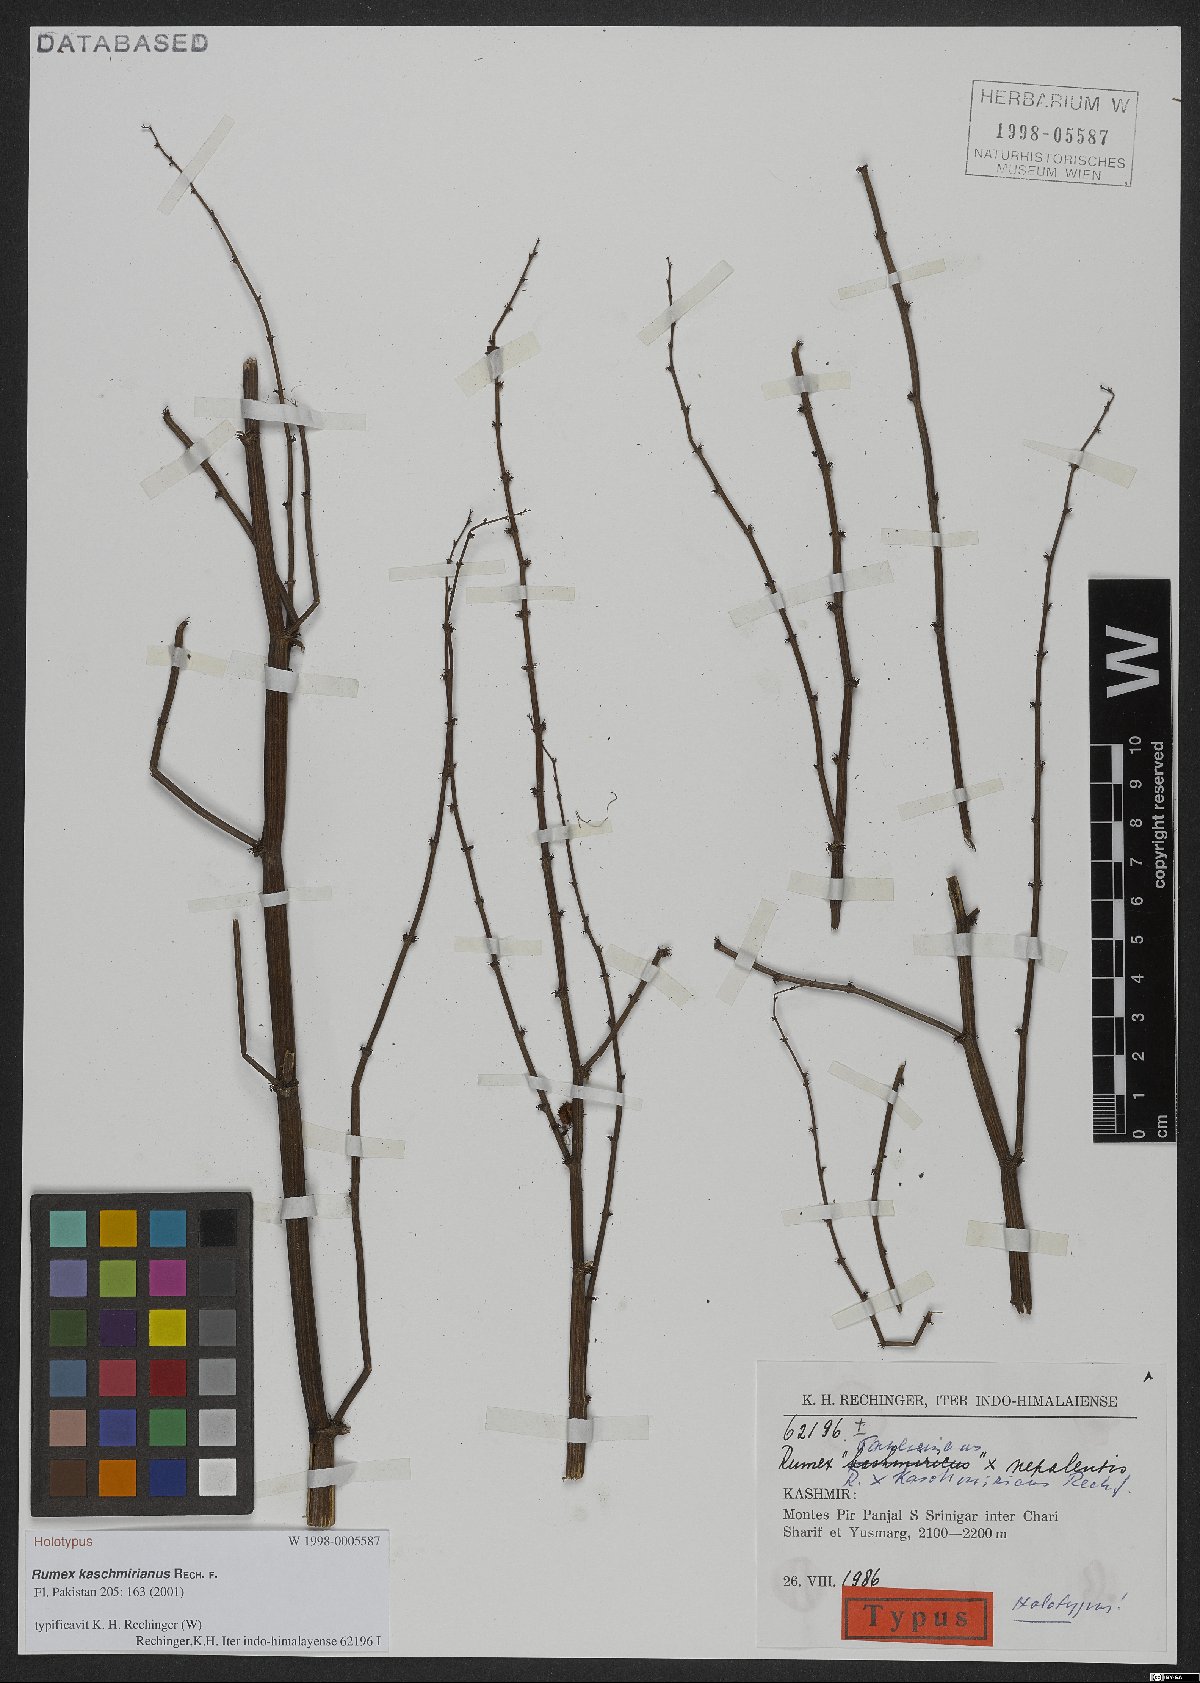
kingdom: Plantae
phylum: Tracheophyta
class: Magnoliopsida
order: Caryophyllales
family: Polygonaceae
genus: Rumex
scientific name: Rumex kaschmirianus
